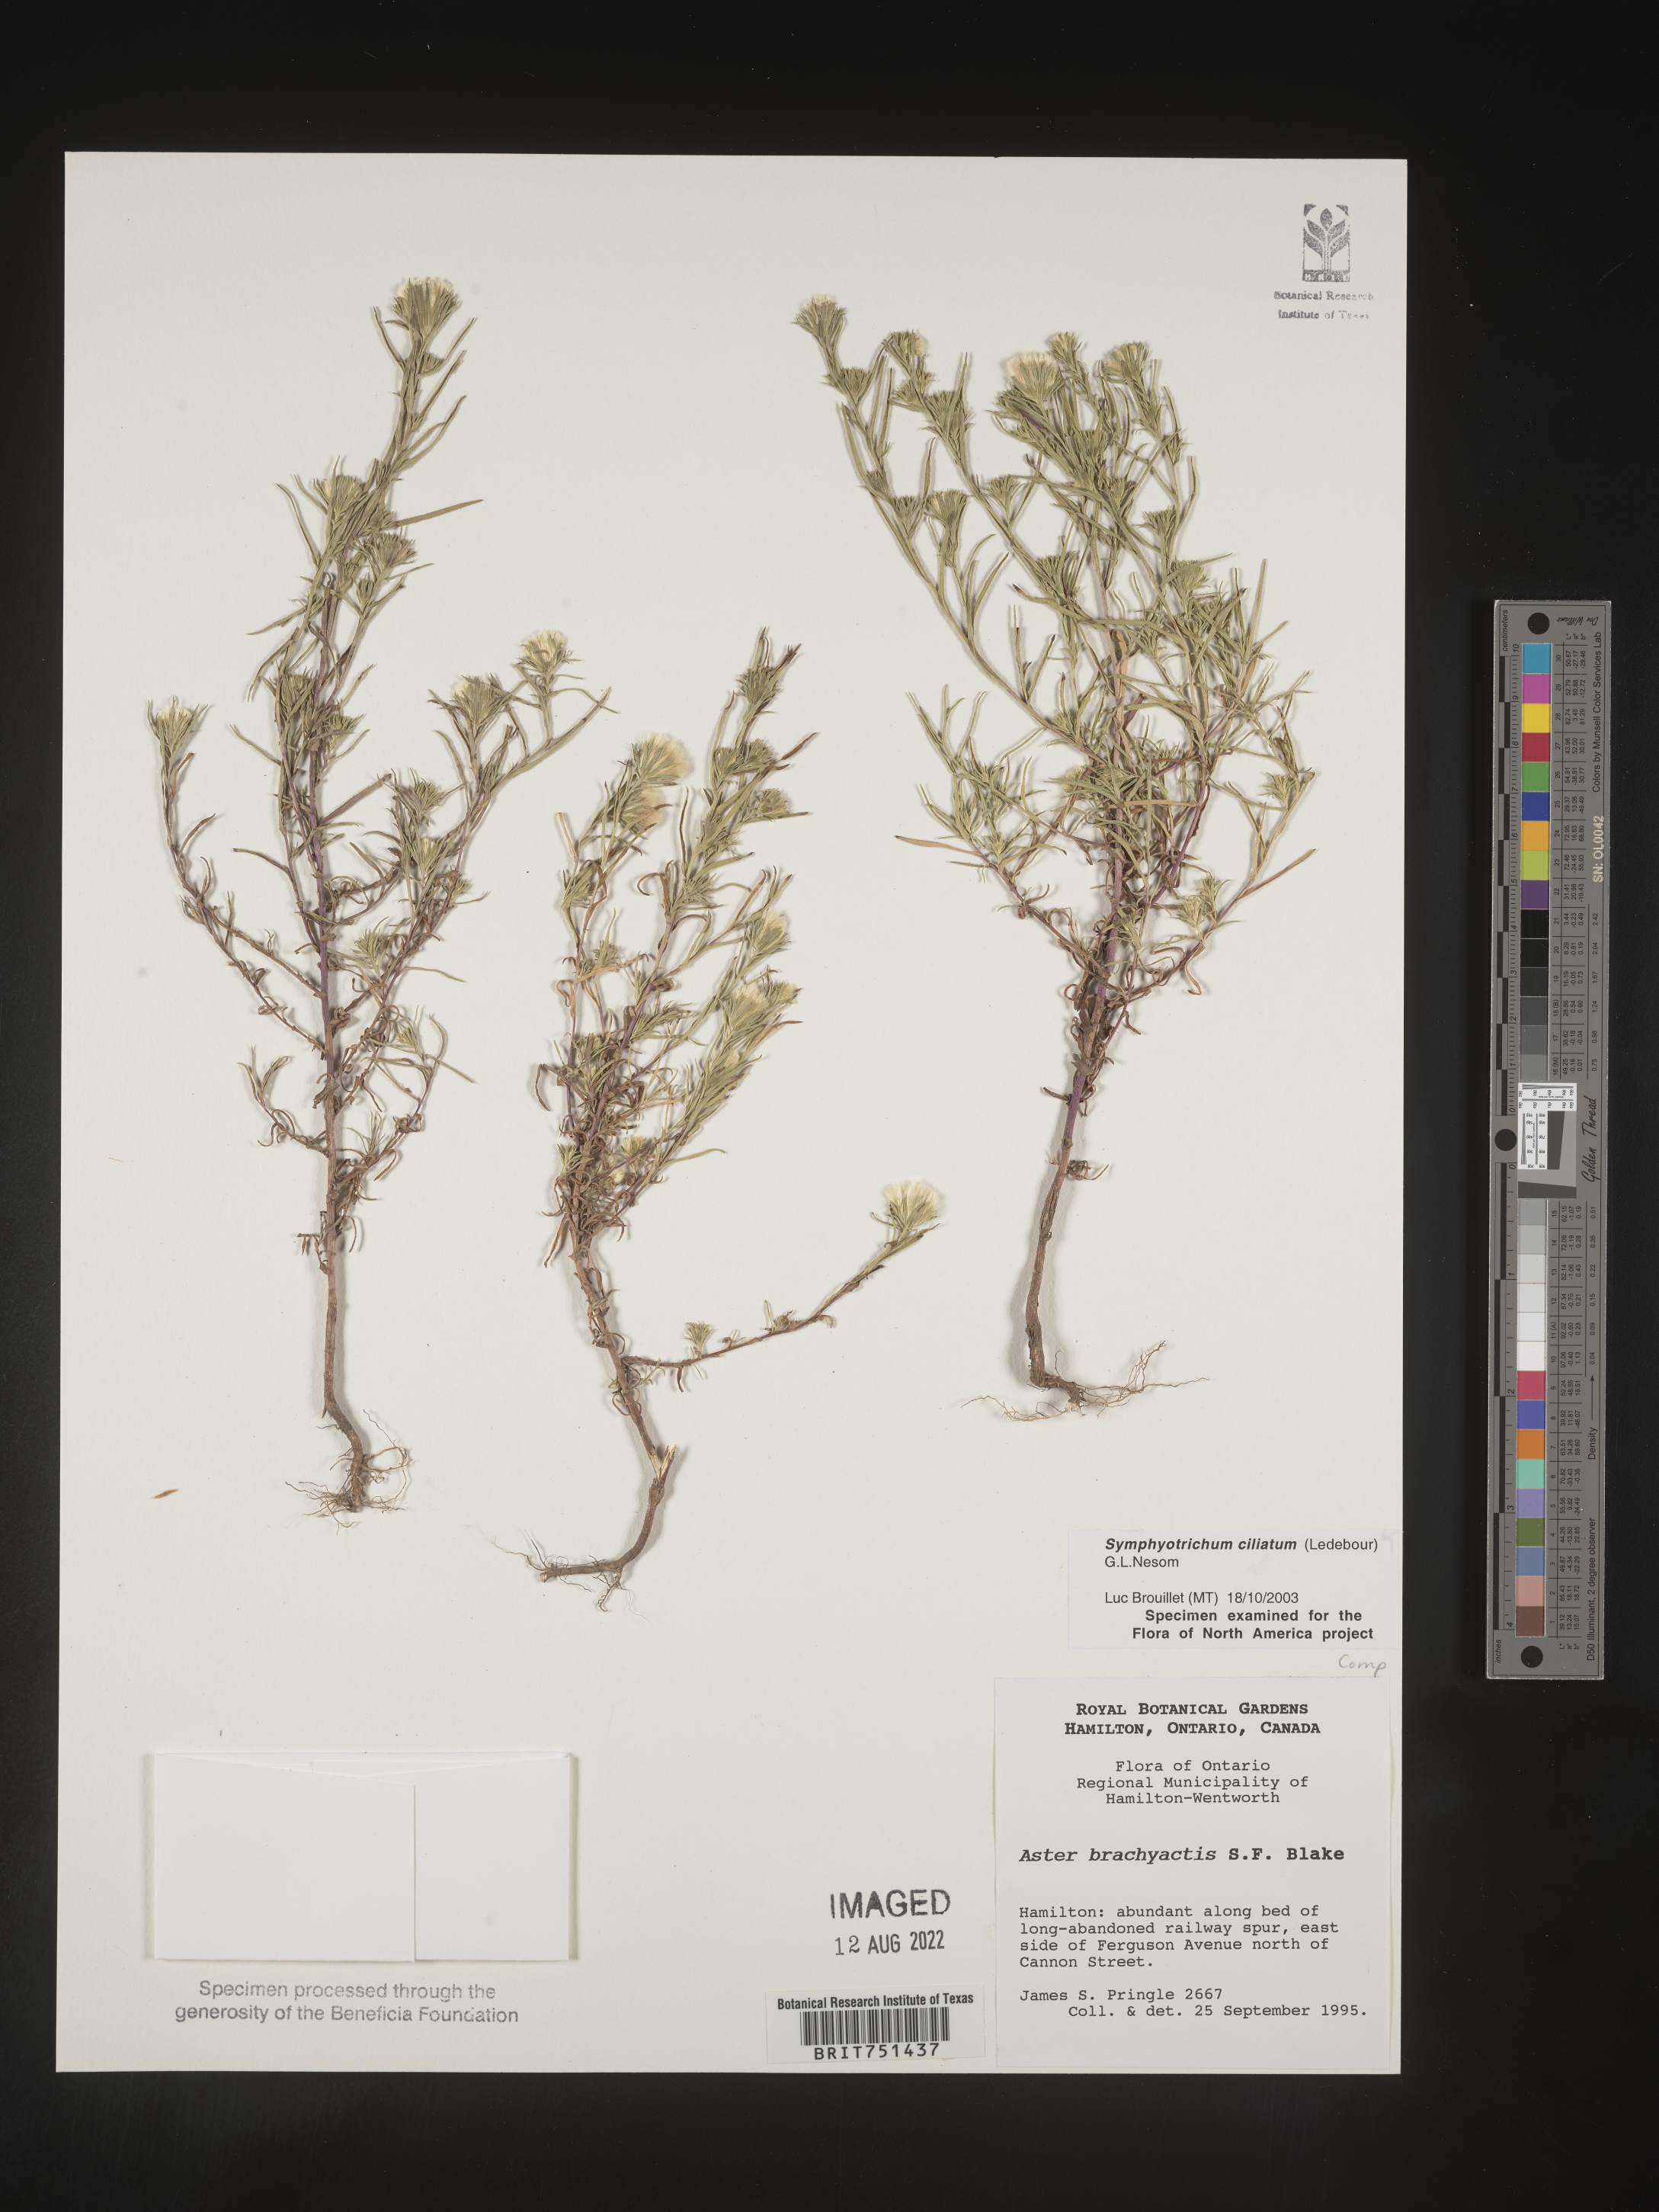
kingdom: Plantae
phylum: Tracheophyta
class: Magnoliopsida
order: Asterales
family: Asteraceae
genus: Symphyotrichum
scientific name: Symphyotrichum ciliatum
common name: Rayless annual aster
